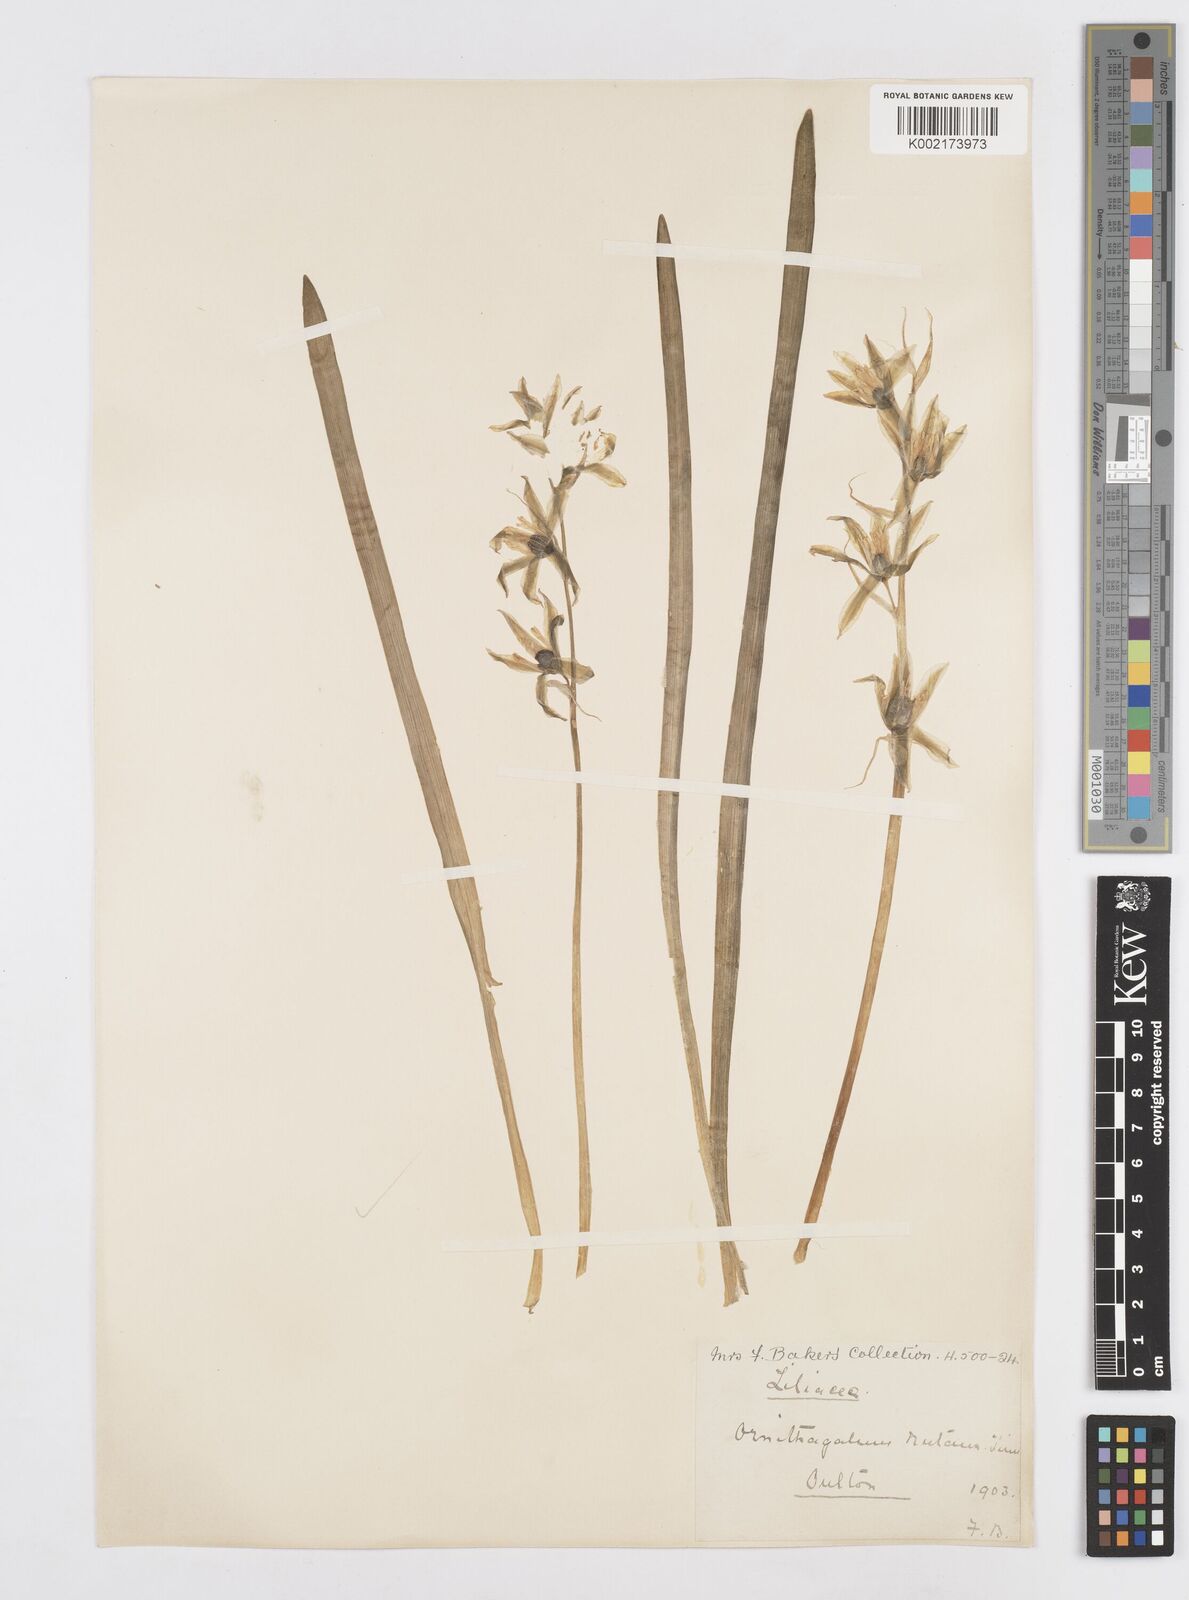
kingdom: Plantae
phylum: Tracheophyta
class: Liliopsida
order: Asparagales
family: Asparagaceae
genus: Ornithogalum
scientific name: Ornithogalum nutans
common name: Drooping star-of-bethlehem
